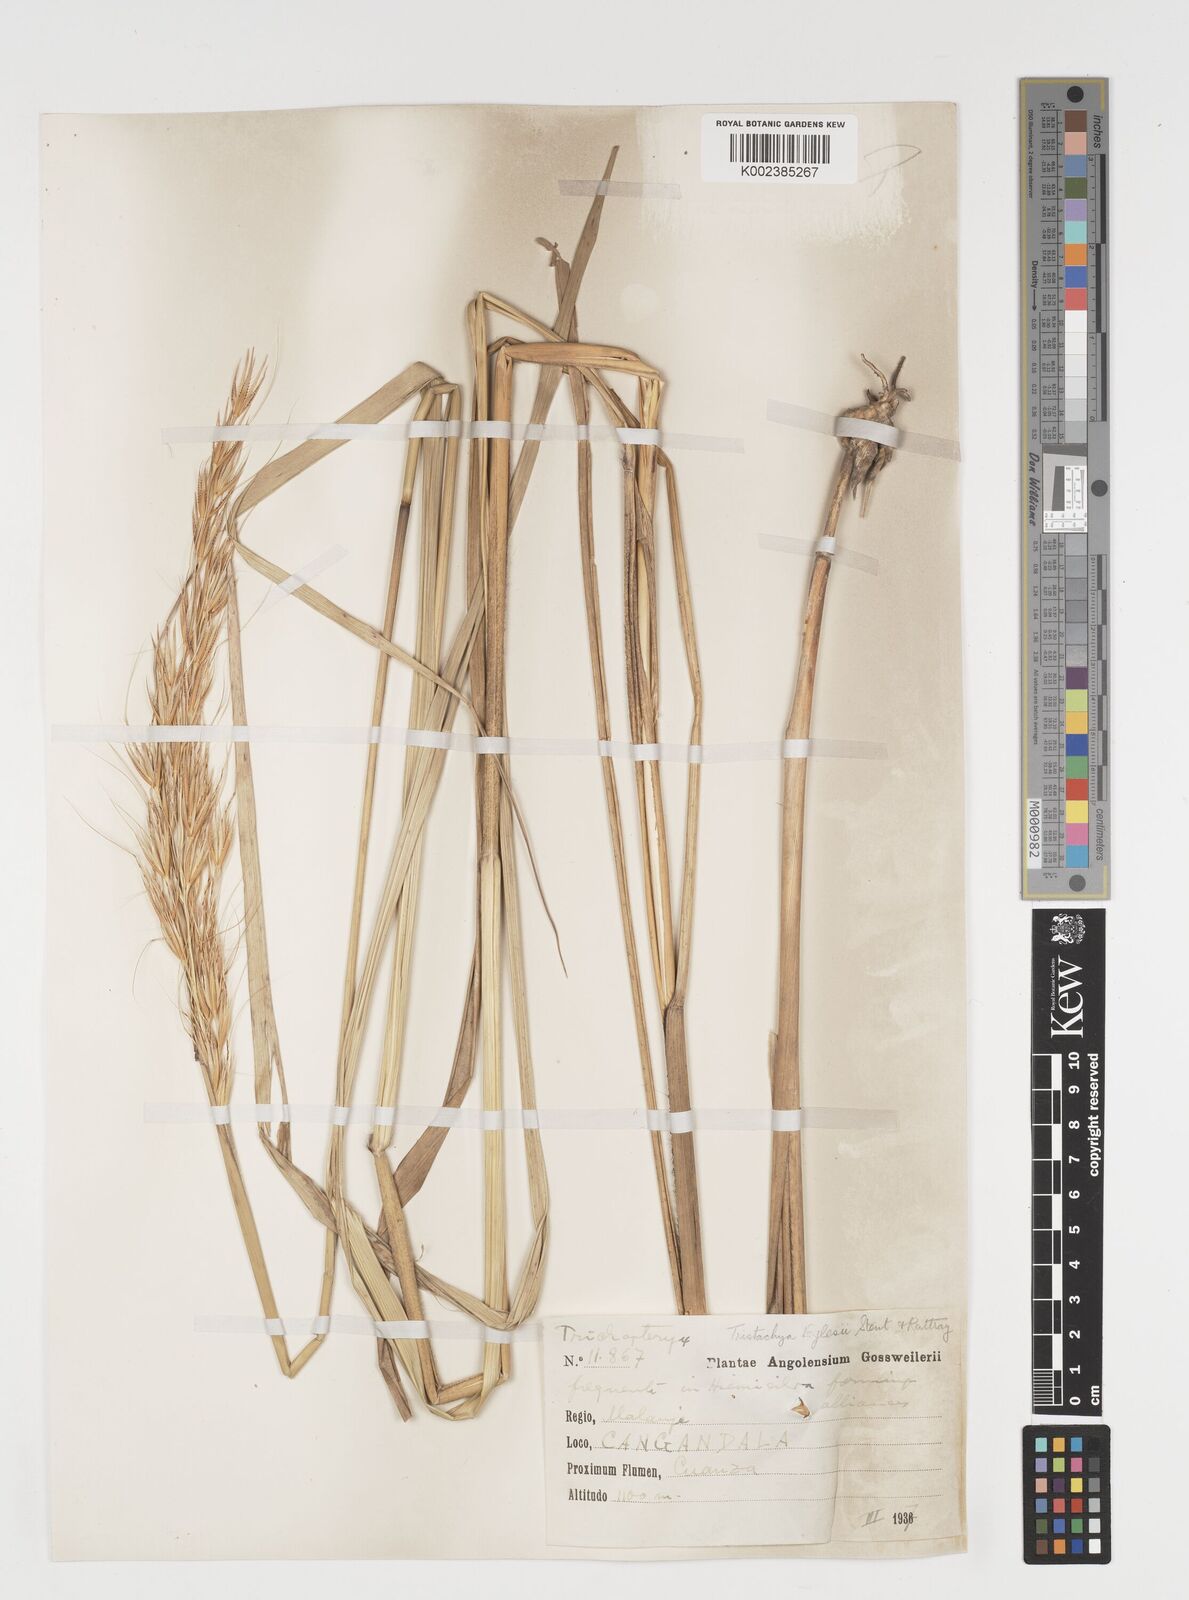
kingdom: Plantae
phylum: Tracheophyta
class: Liliopsida
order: Poales
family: Poaceae
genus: Tristachya
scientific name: Tristachya nodiglumis
